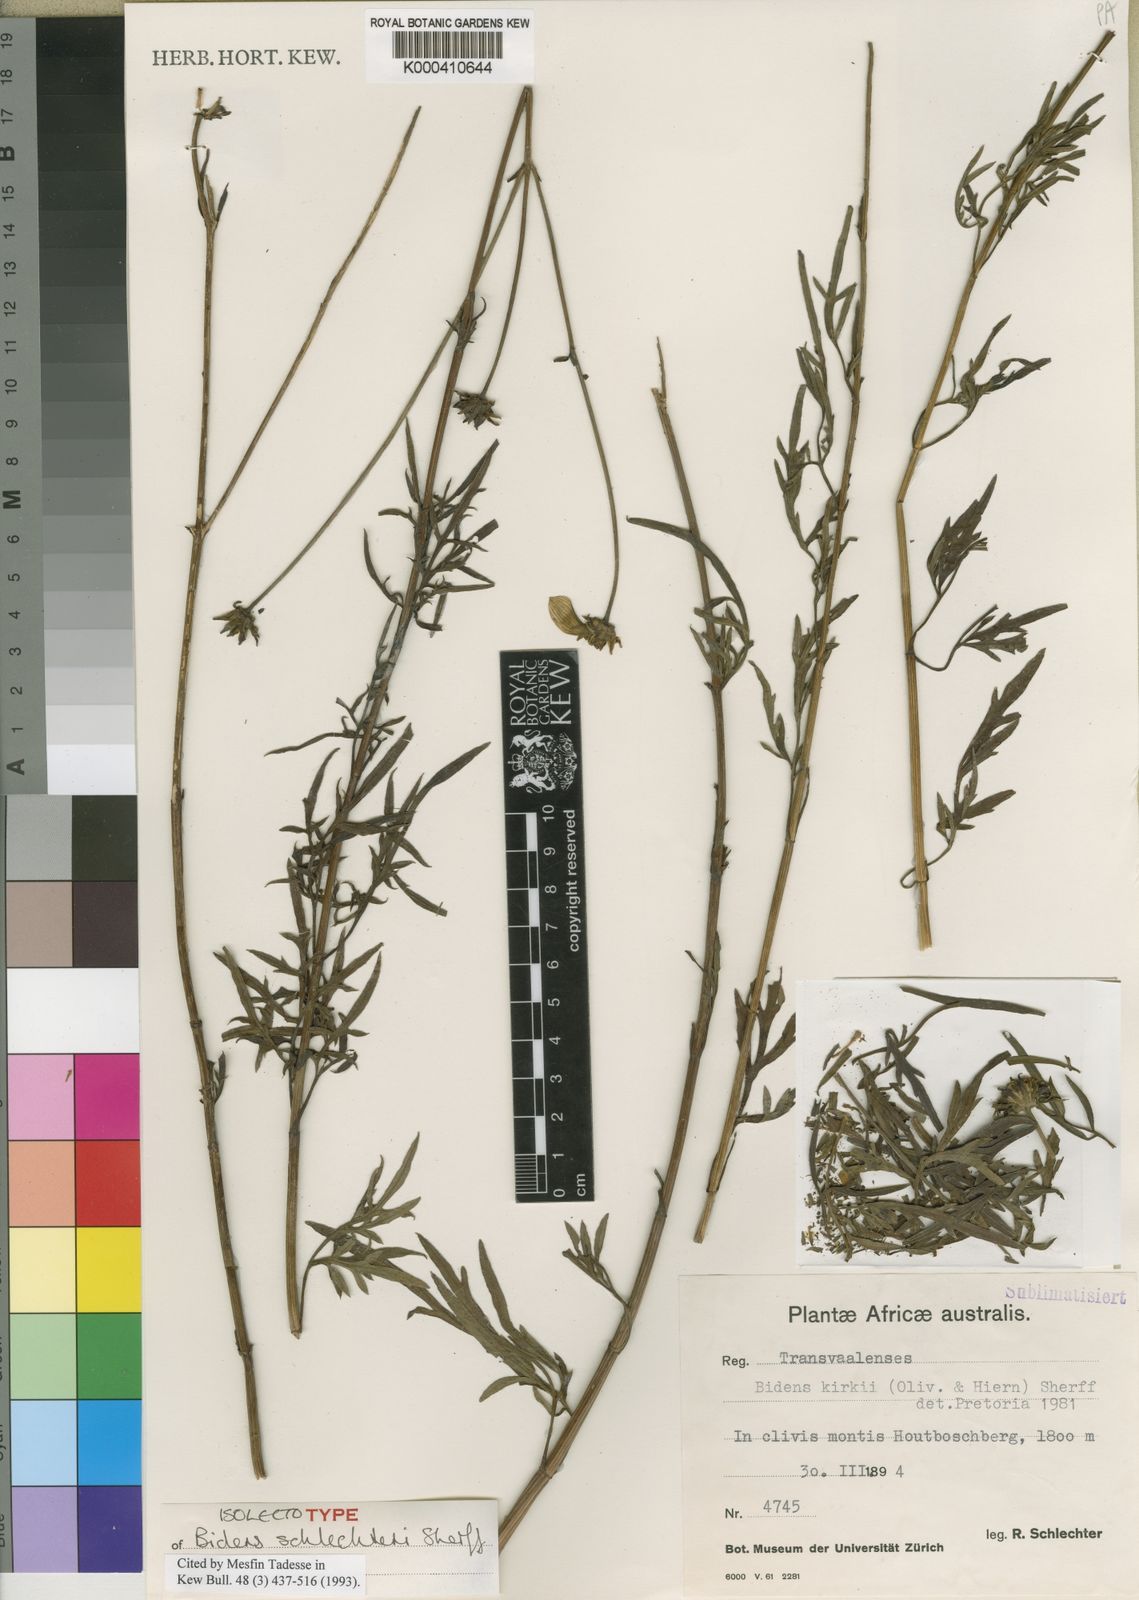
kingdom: Plantae
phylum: Tracheophyta
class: Magnoliopsida
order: Asterales
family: Asteraceae
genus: Bidens
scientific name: Bidens kirkii
